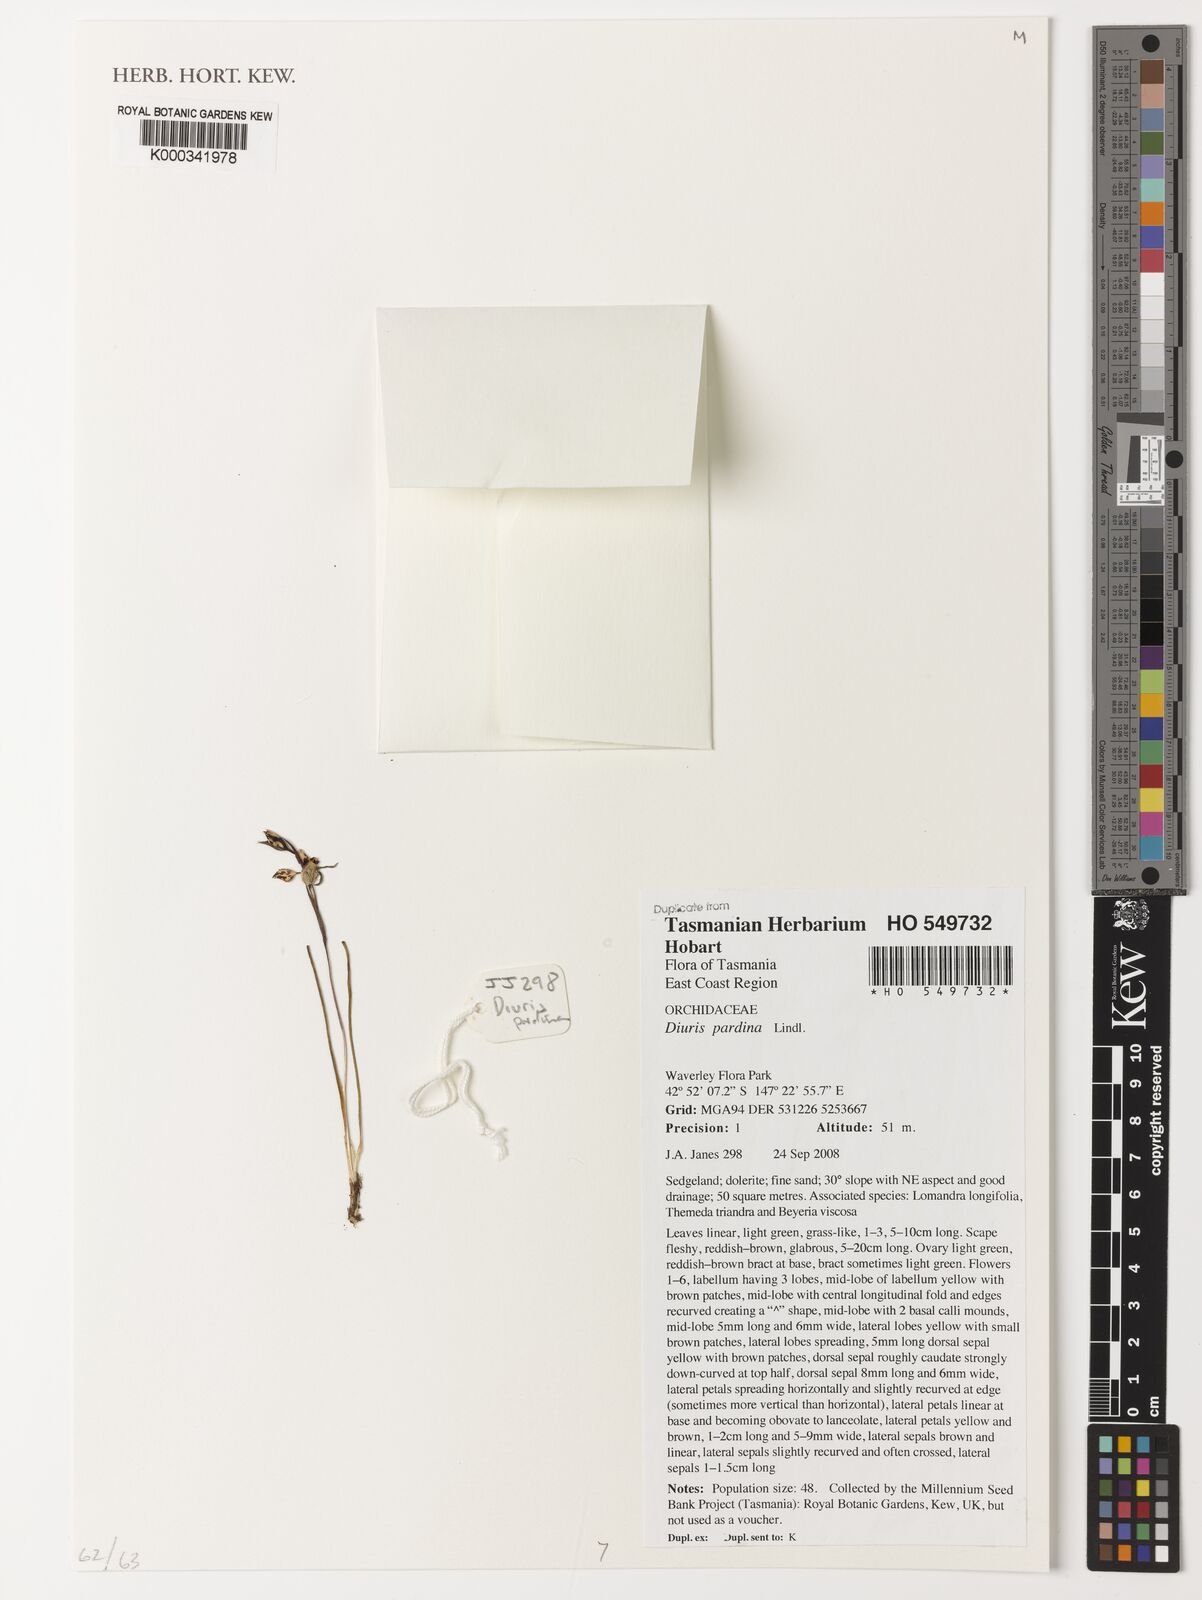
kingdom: Plantae
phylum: Tracheophyta
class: Liliopsida
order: Asparagales
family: Orchidaceae
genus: Diuris
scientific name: Diuris pardina
